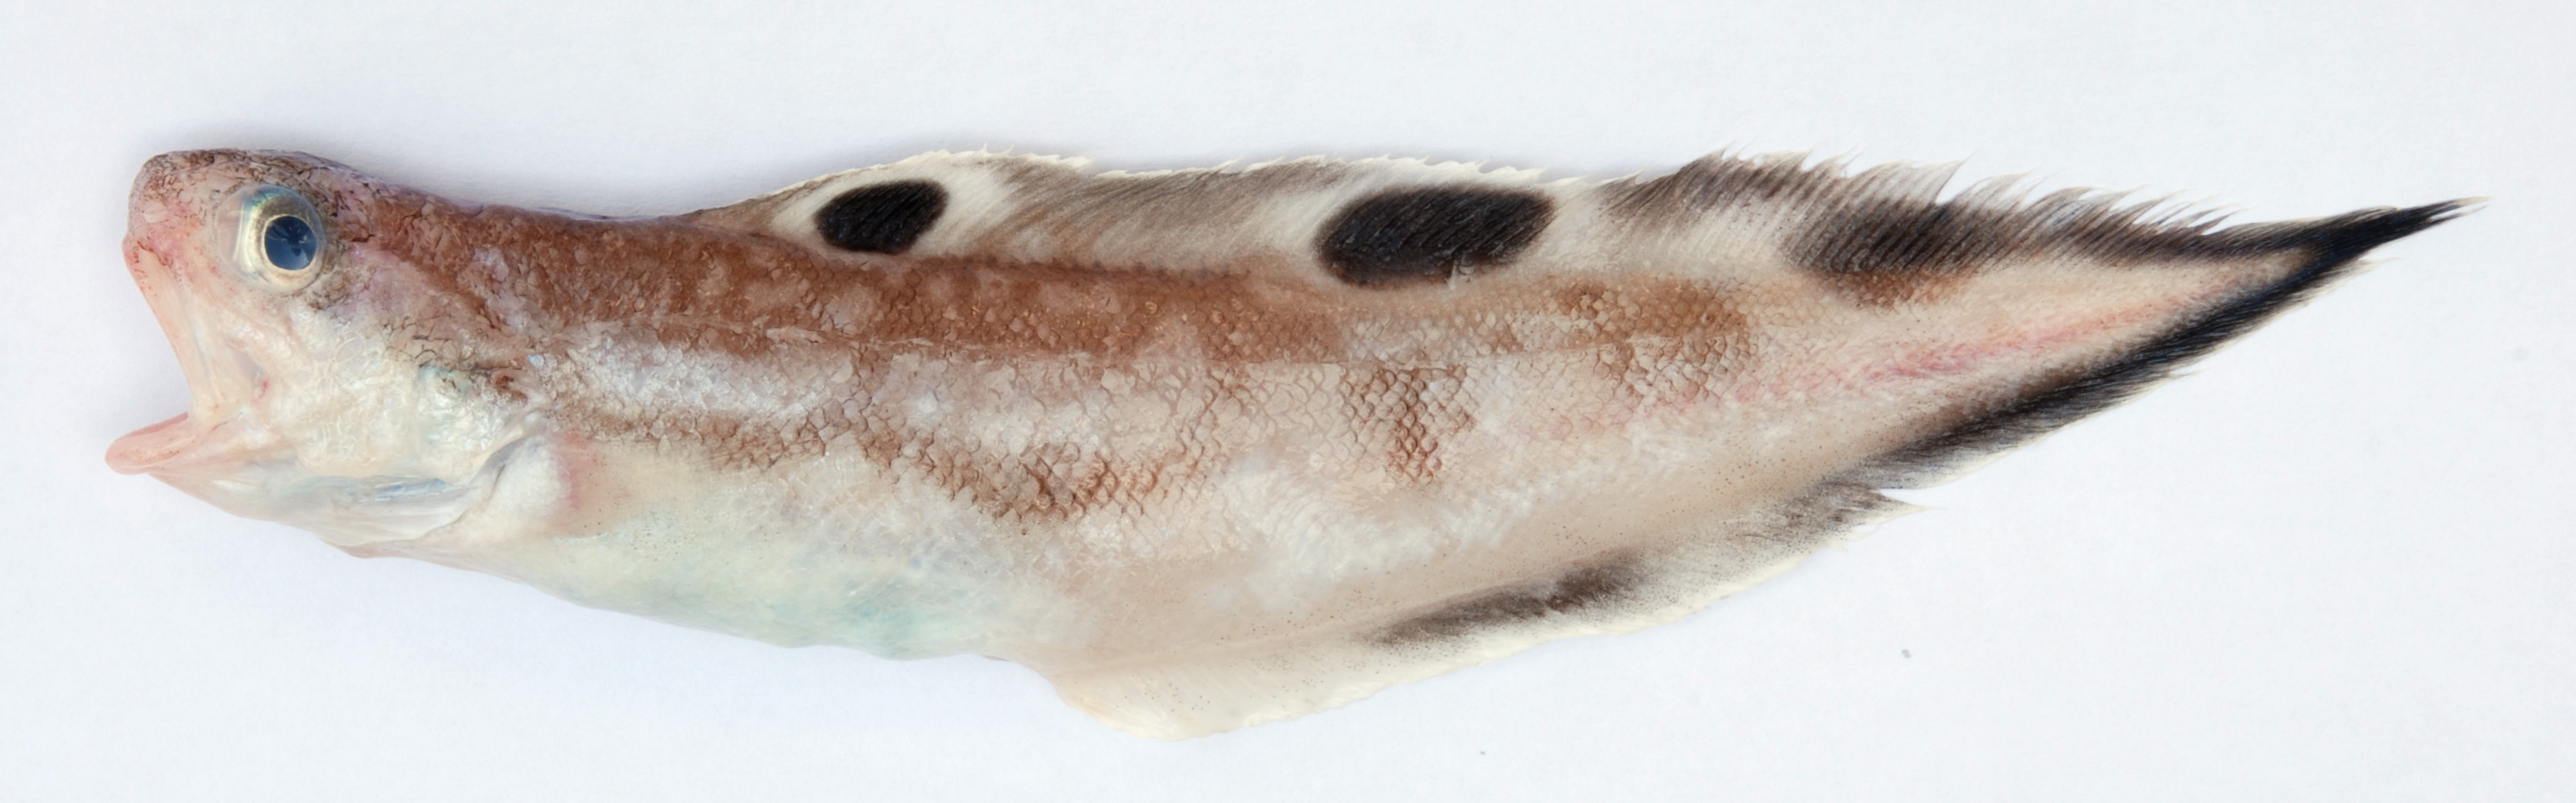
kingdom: Animalia
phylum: Chordata
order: Ophidiiformes
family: Ophidiidae
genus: Neobythites
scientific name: Neobythites kenyaensis
